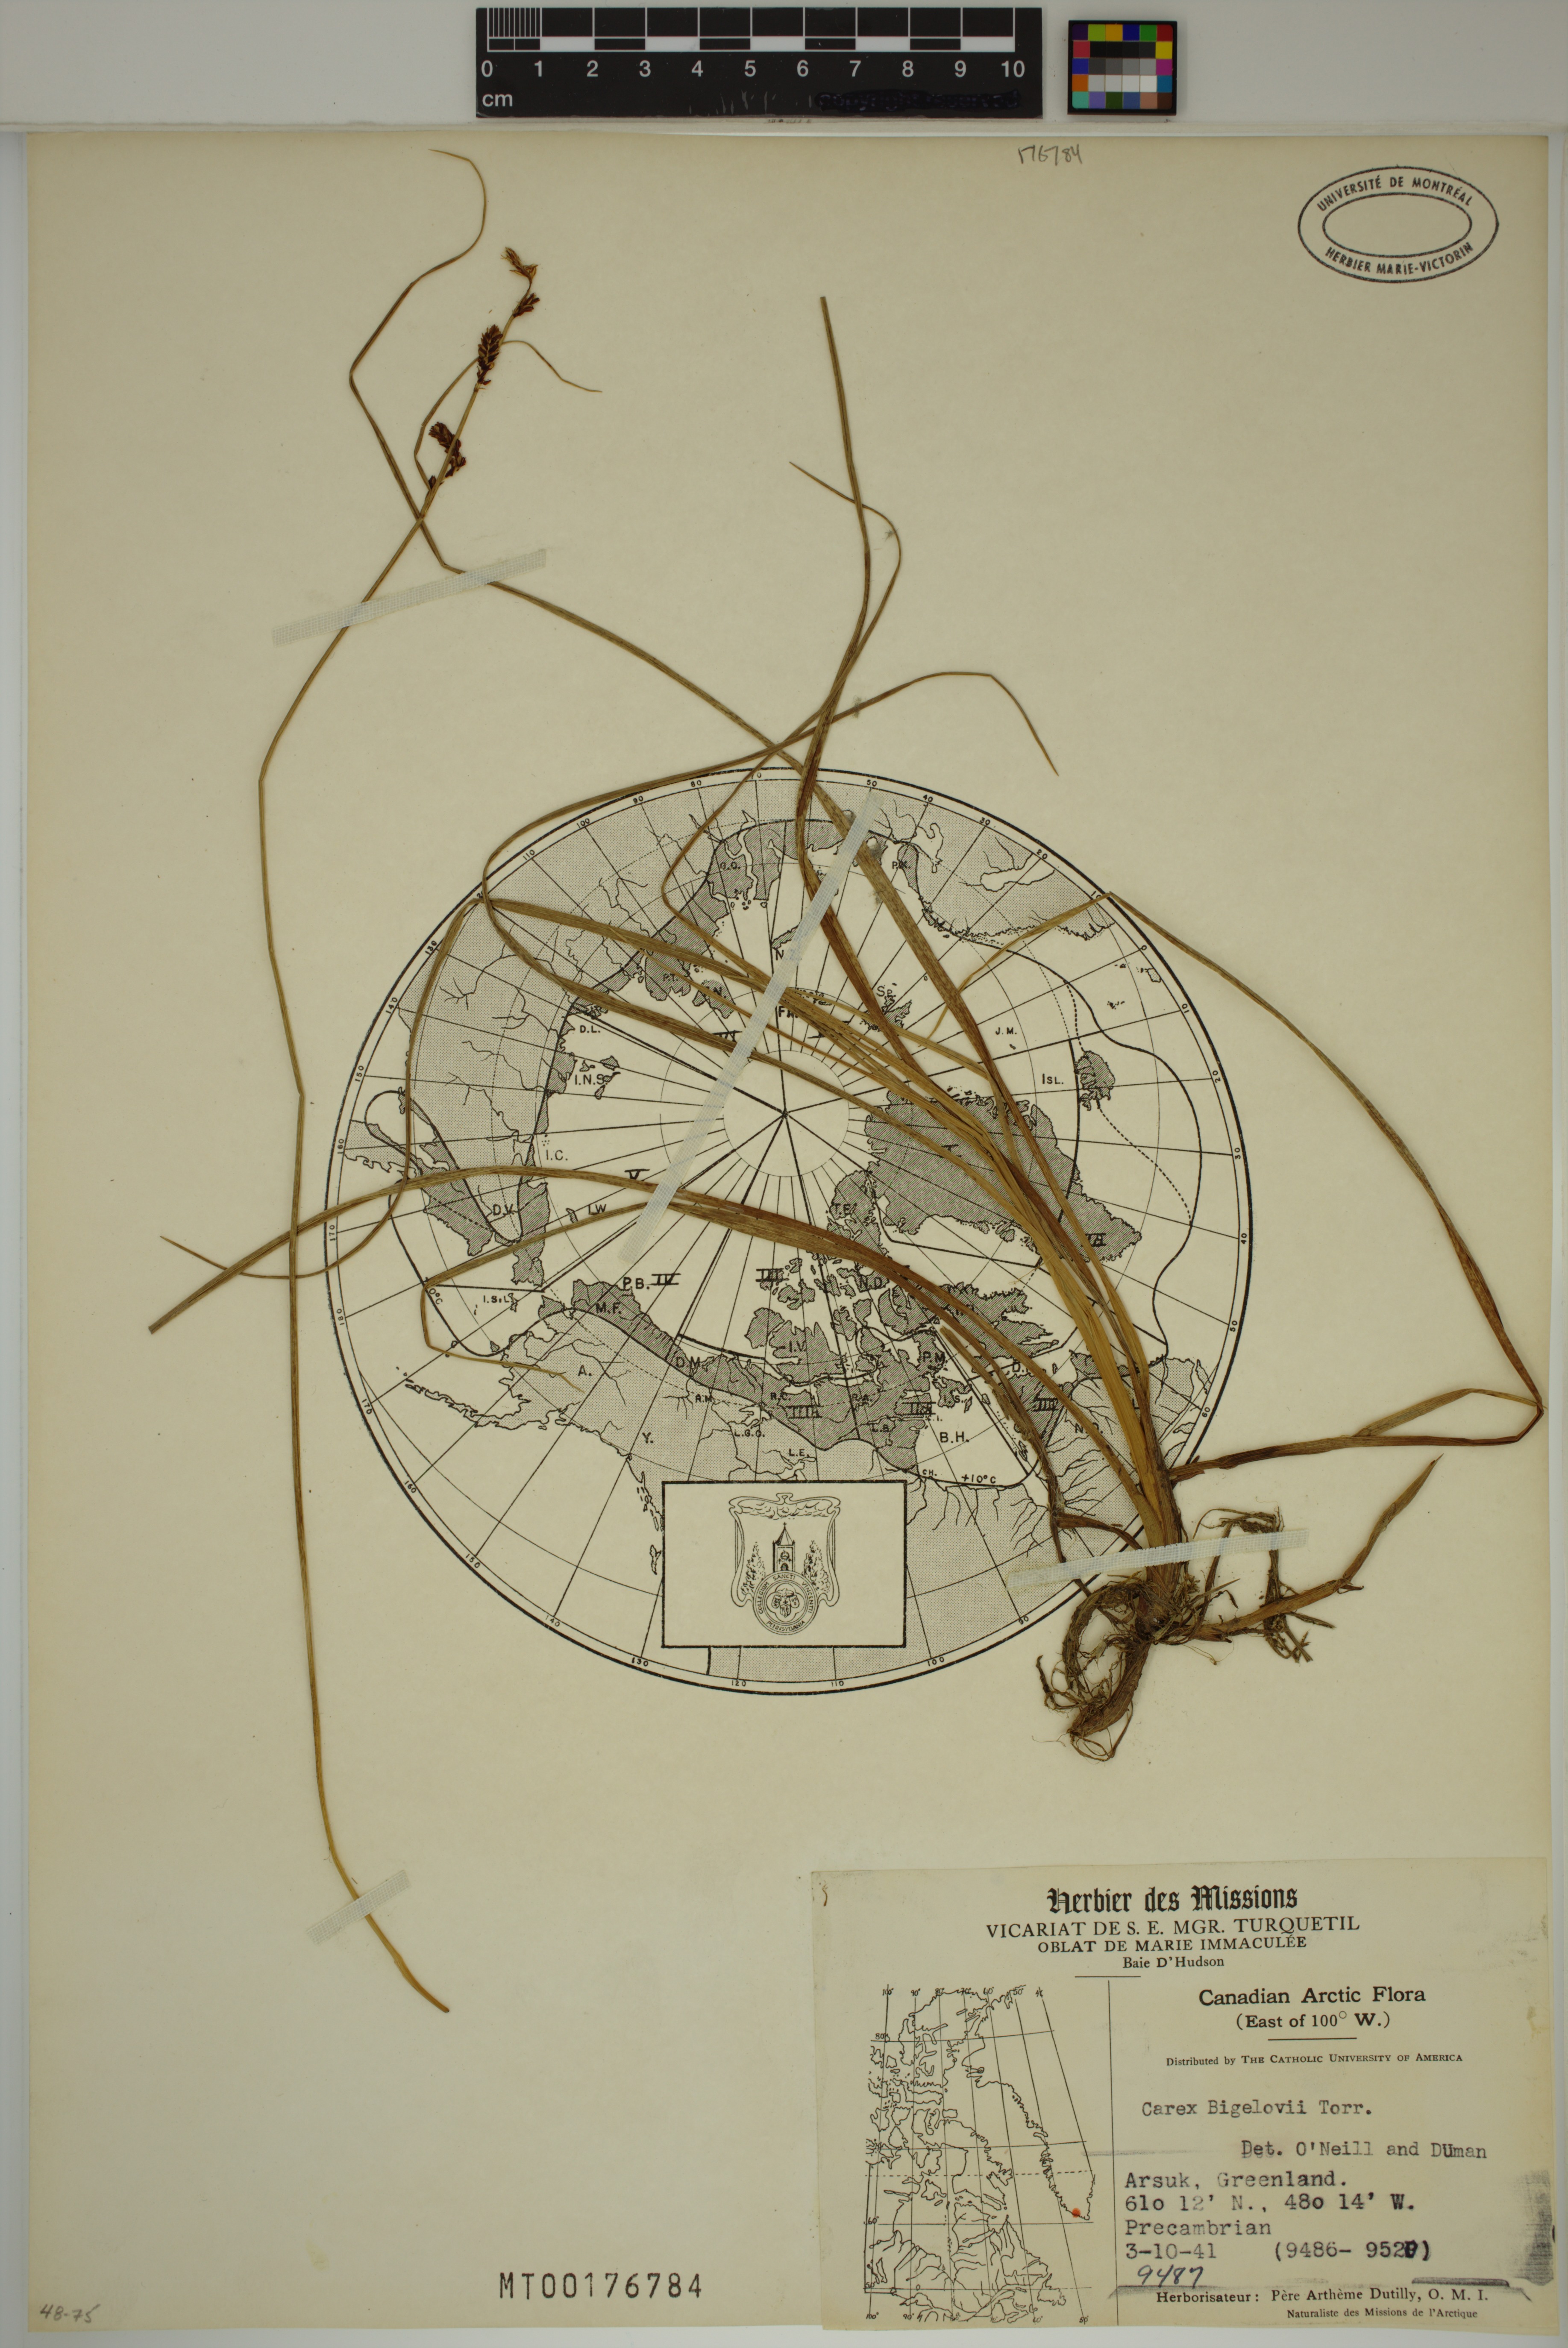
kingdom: Plantae
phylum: Tracheophyta
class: Liliopsida
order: Poales
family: Cyperaceae
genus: Carex
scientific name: Carex bigelowii
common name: Stiff sedge
